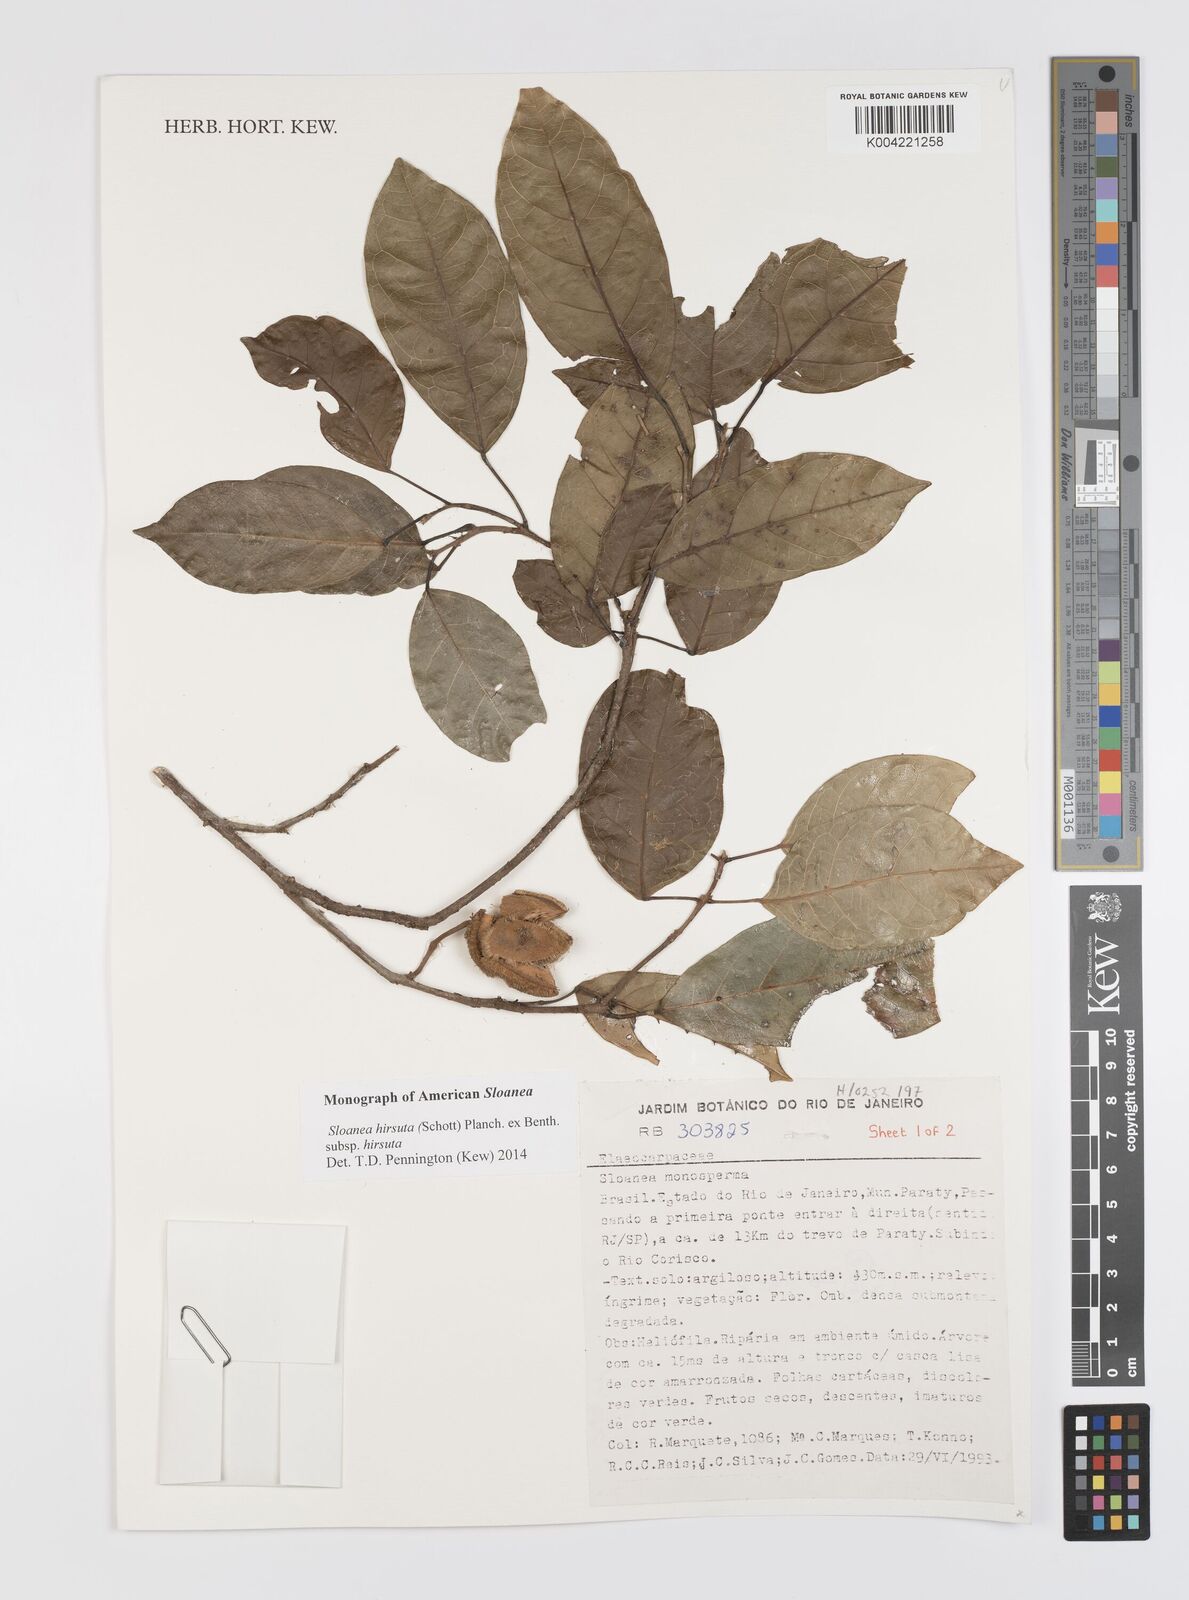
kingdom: Plantae
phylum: Tracheophyta
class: Magnoliopsida
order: Oxalidales
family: Elaeocarpaceae
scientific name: Elaeocarpaceae
